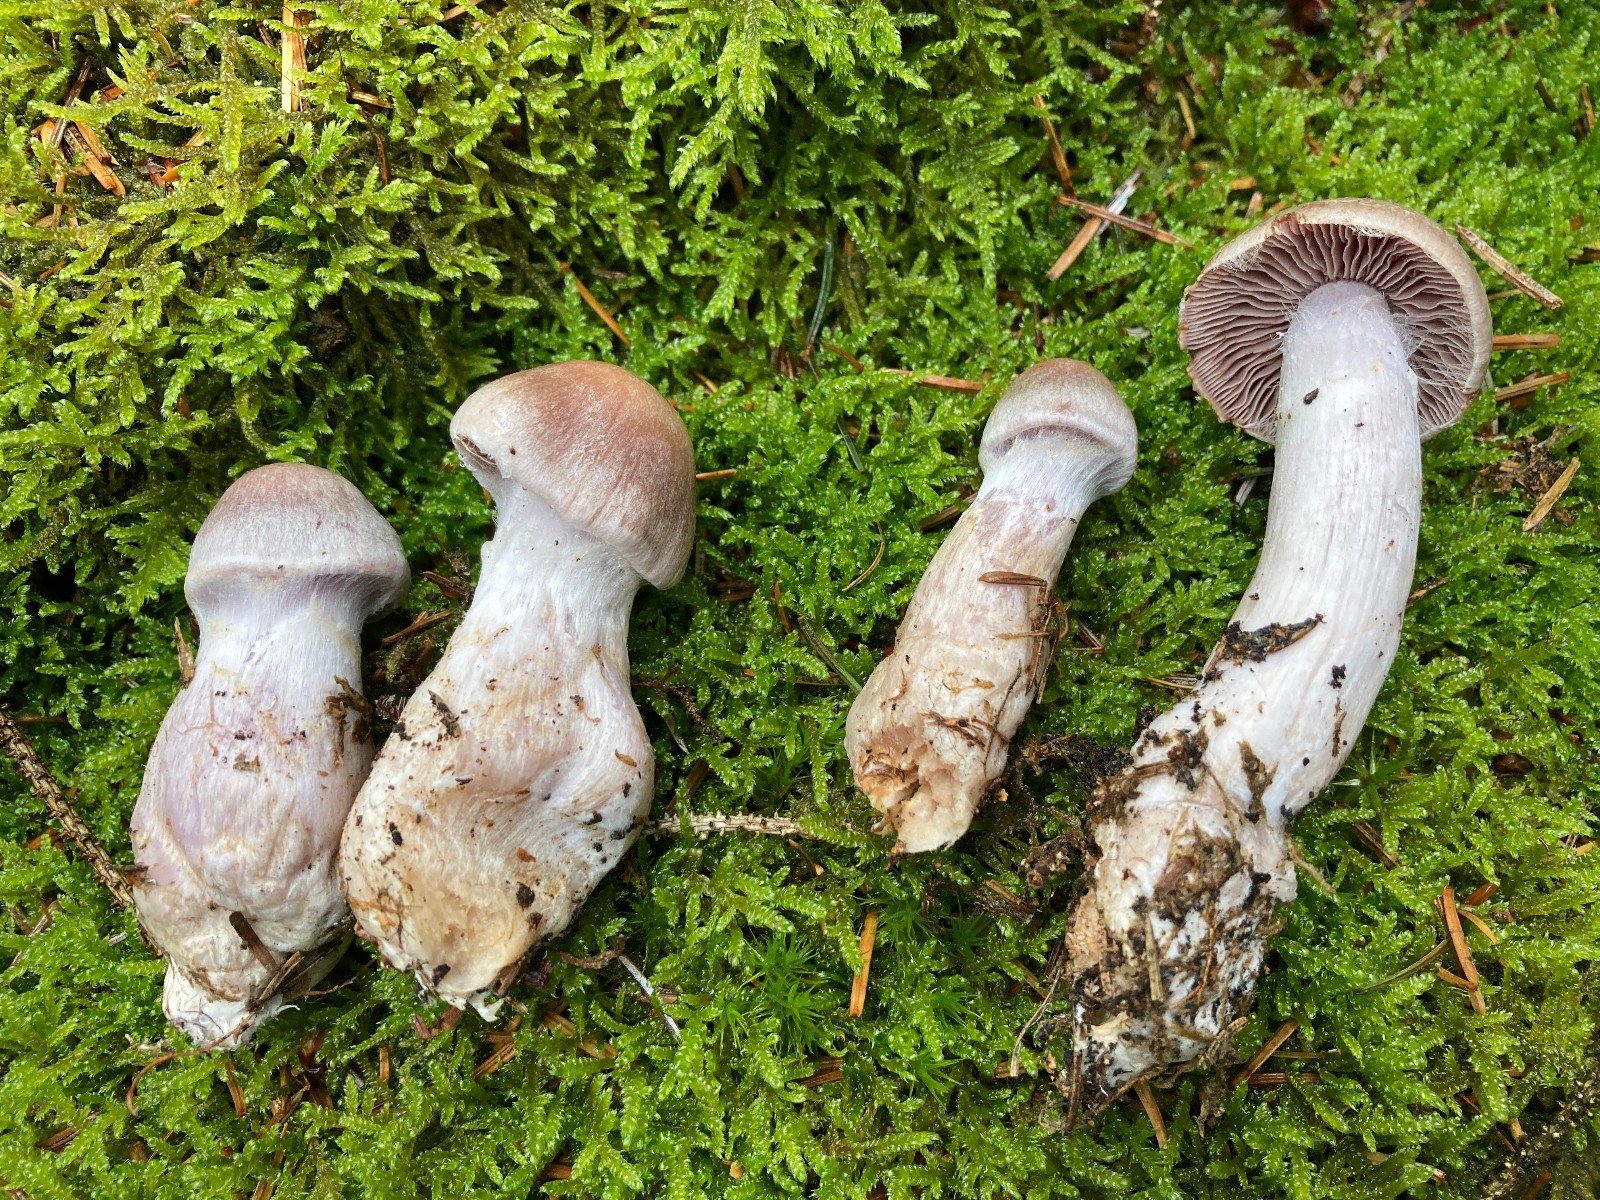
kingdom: Fungi
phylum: Basidiomycota
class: Agaricomycetes
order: Agaricales
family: Cortinariaceae
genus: Cortinarius
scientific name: Cortinarius malachius
